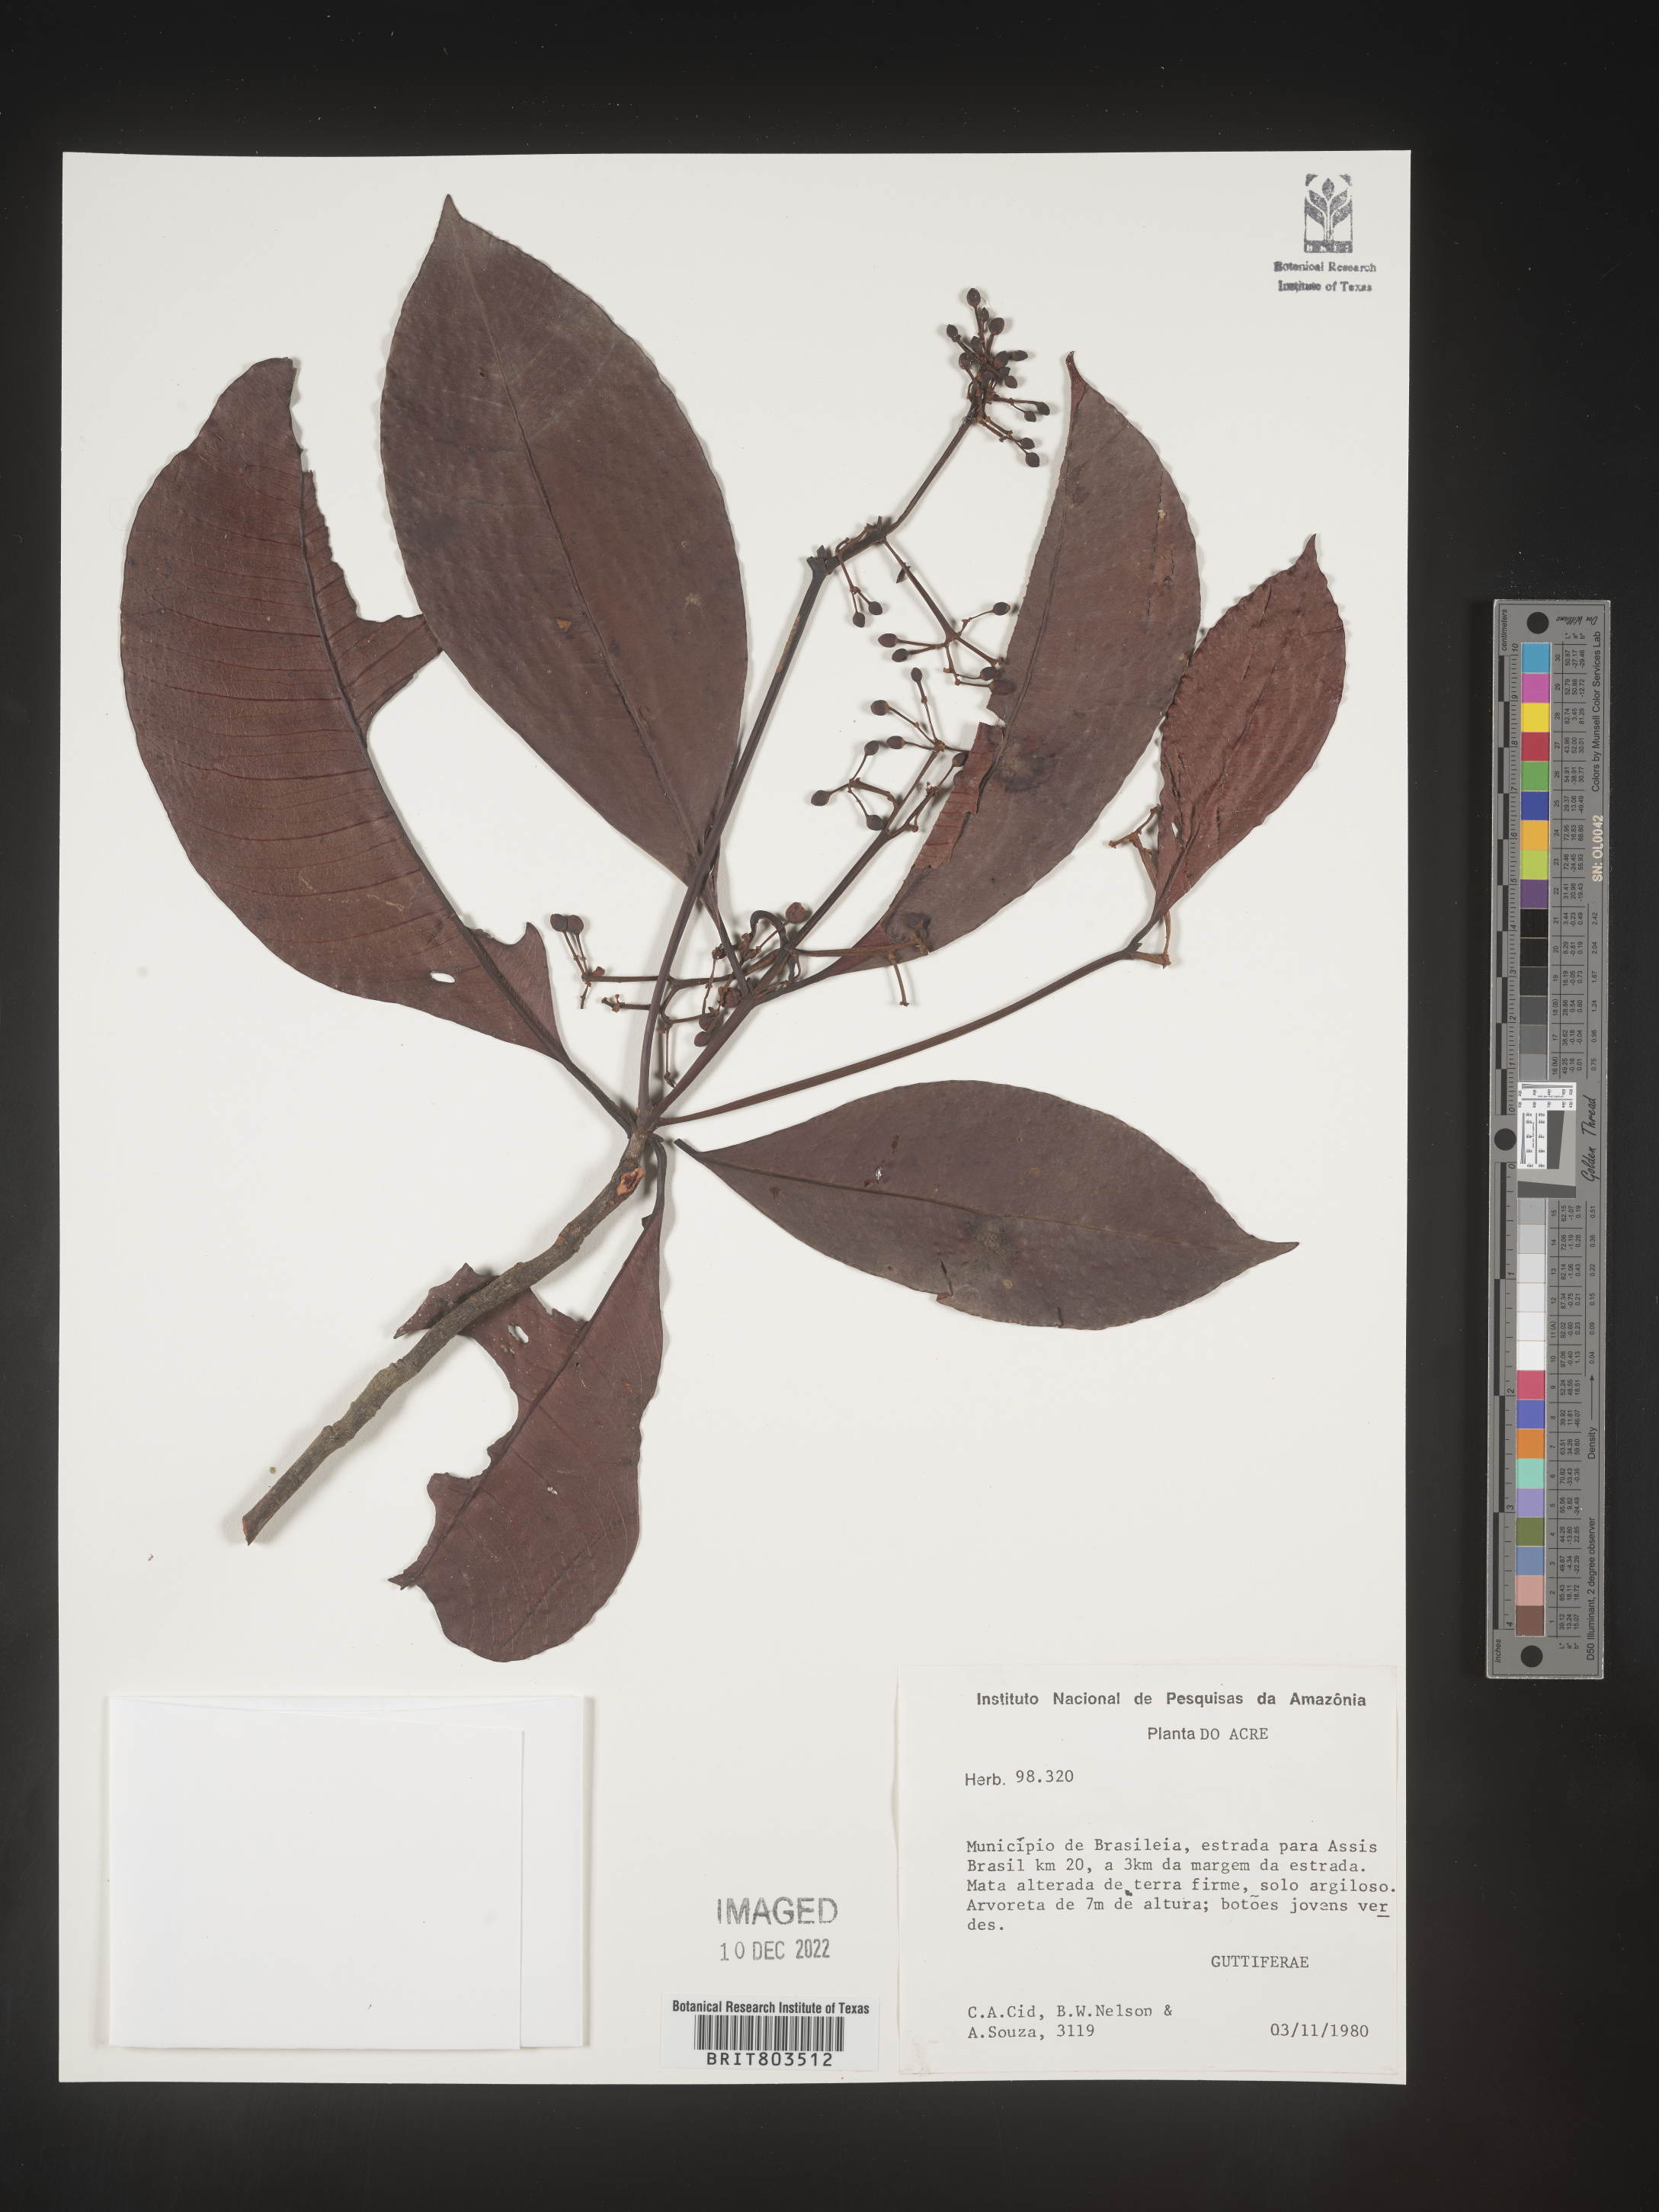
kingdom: Plantae
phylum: Tracheophyta
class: Magnoliopsida
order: Malpighiales
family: Clusiaceae
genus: Tovomita
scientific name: Tovomita
